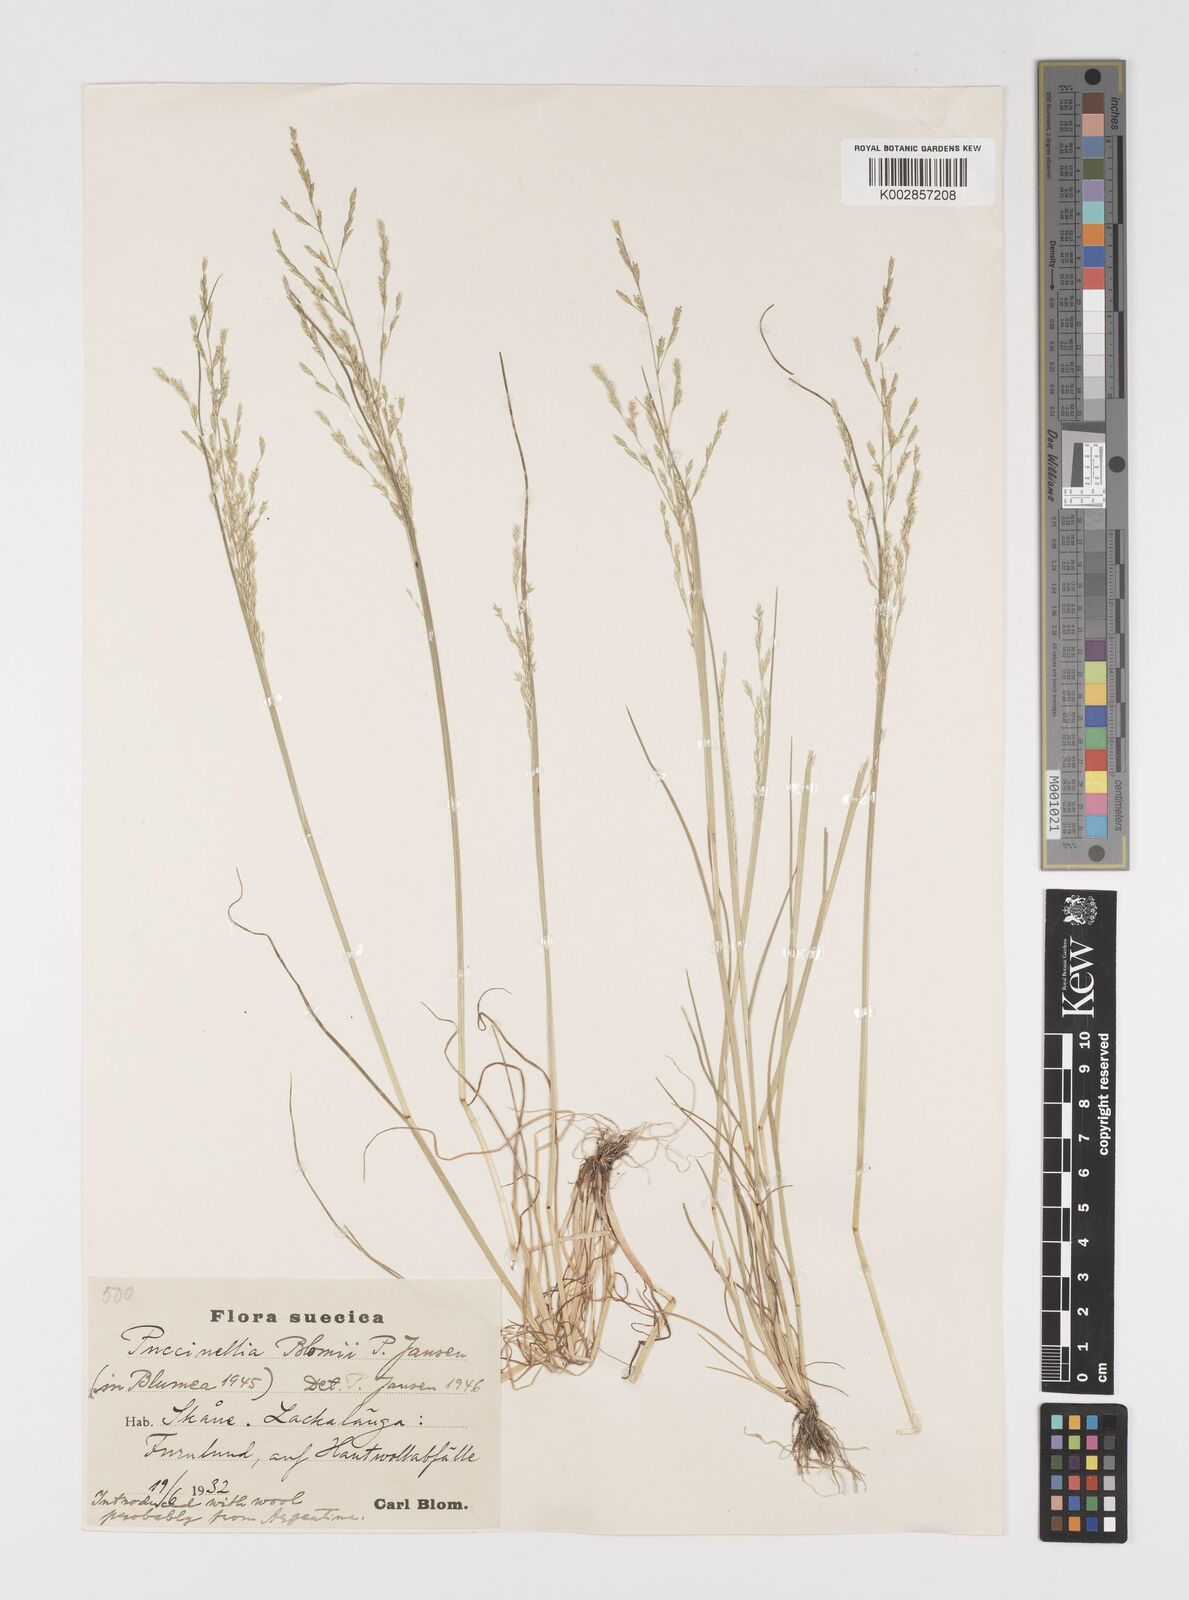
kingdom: Plantae
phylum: Tracheophyta
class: Liliopsida
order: Poales
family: Poaceae
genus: Puccinellia
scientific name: Puccinellia mendozina
